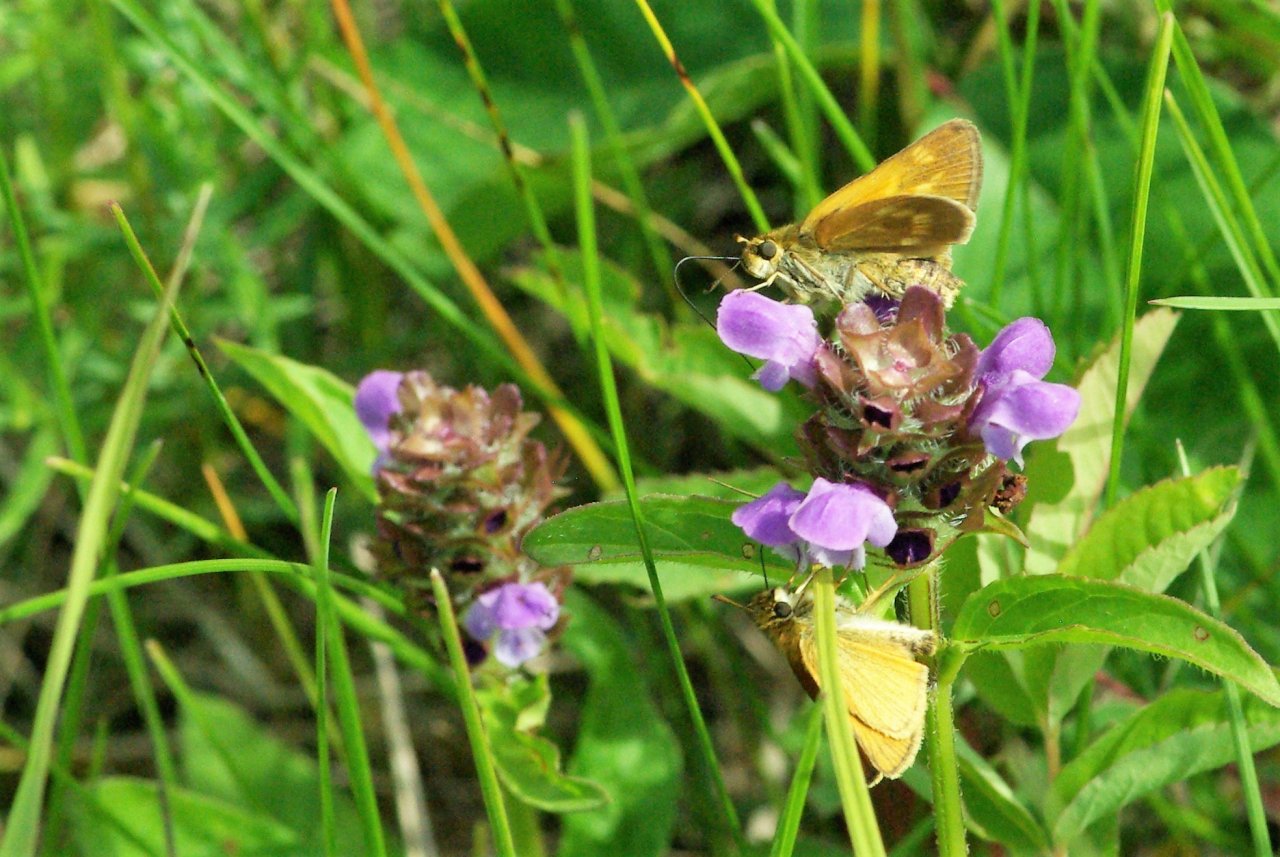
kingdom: Animalia
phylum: Arthropoda
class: Insecta
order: Lepidoptera
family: Hesperiidae
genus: Polites
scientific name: Polites
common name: Long Dash Skipper
